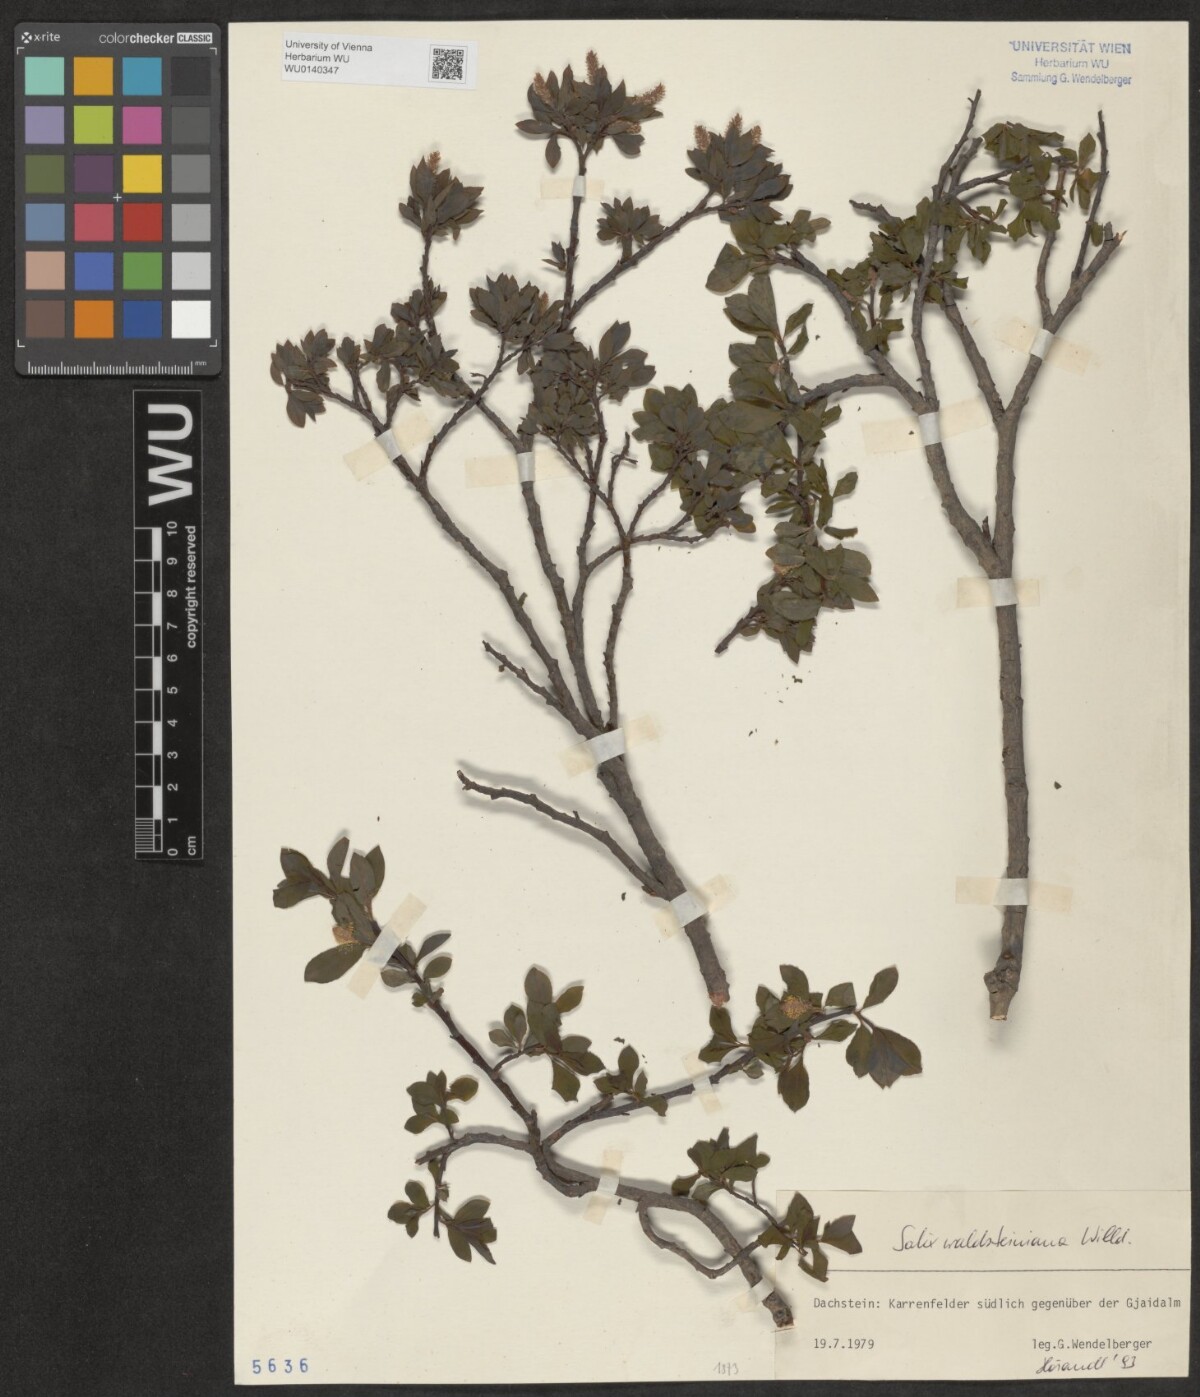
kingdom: Plantae
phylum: Tracheophyta
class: Magnoliopsida
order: Malpighiales
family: Salicaceae
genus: Salix
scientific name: Salix waldsteiniana
